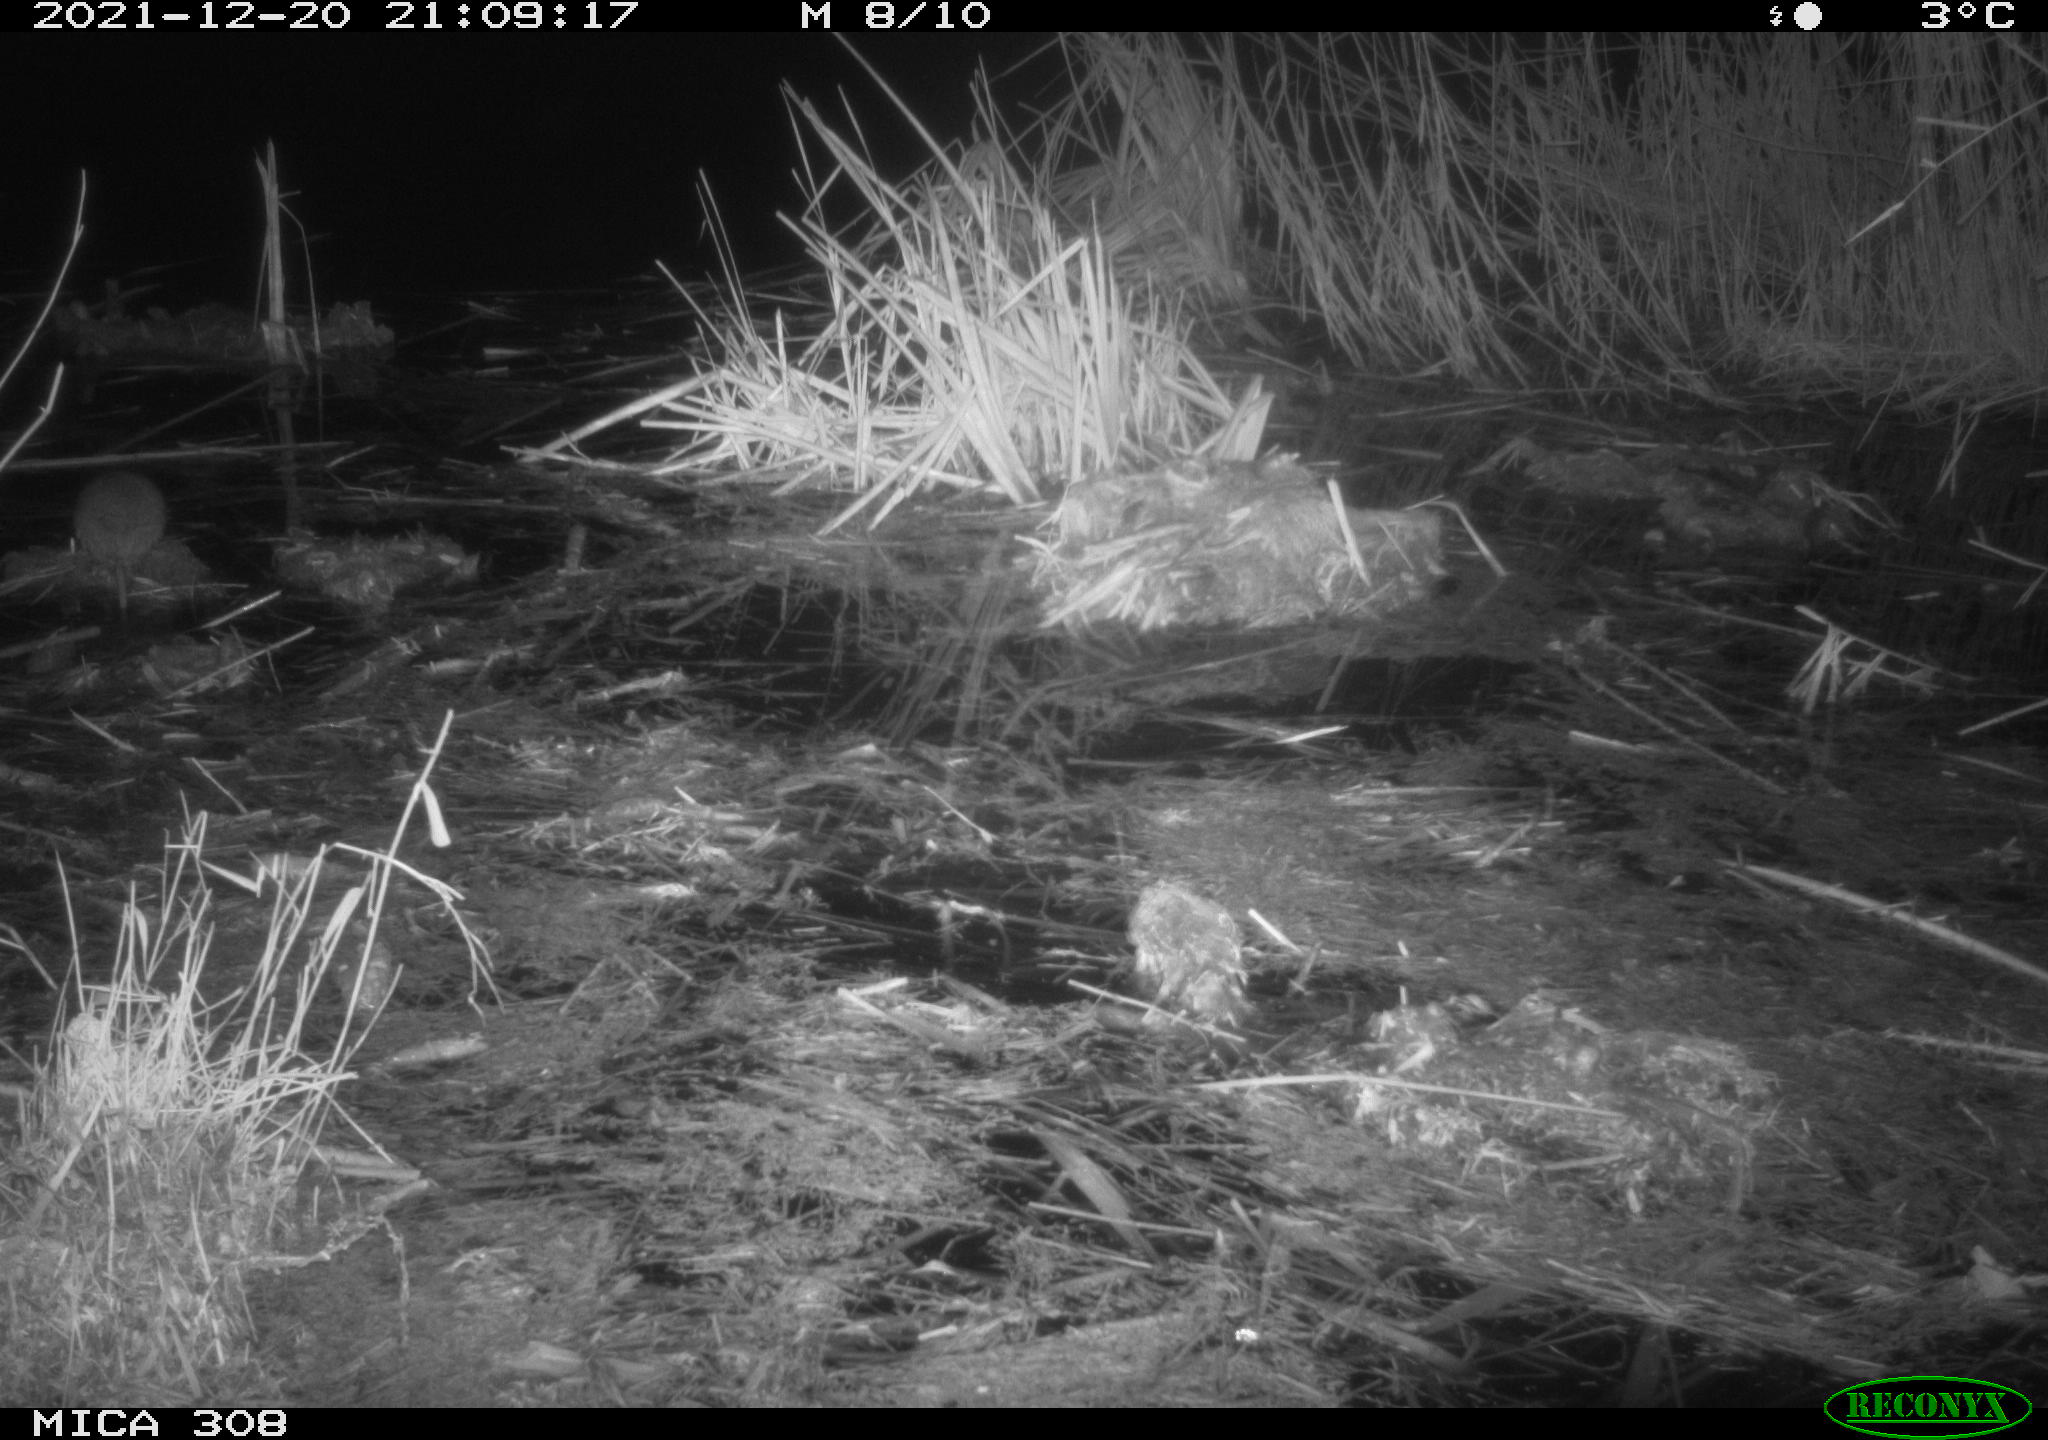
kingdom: Animalia
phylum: Chordata
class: Mammalia
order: Rodentia
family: Muridae
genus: Rattus
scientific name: Rattus norvegicus
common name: Brown rat
